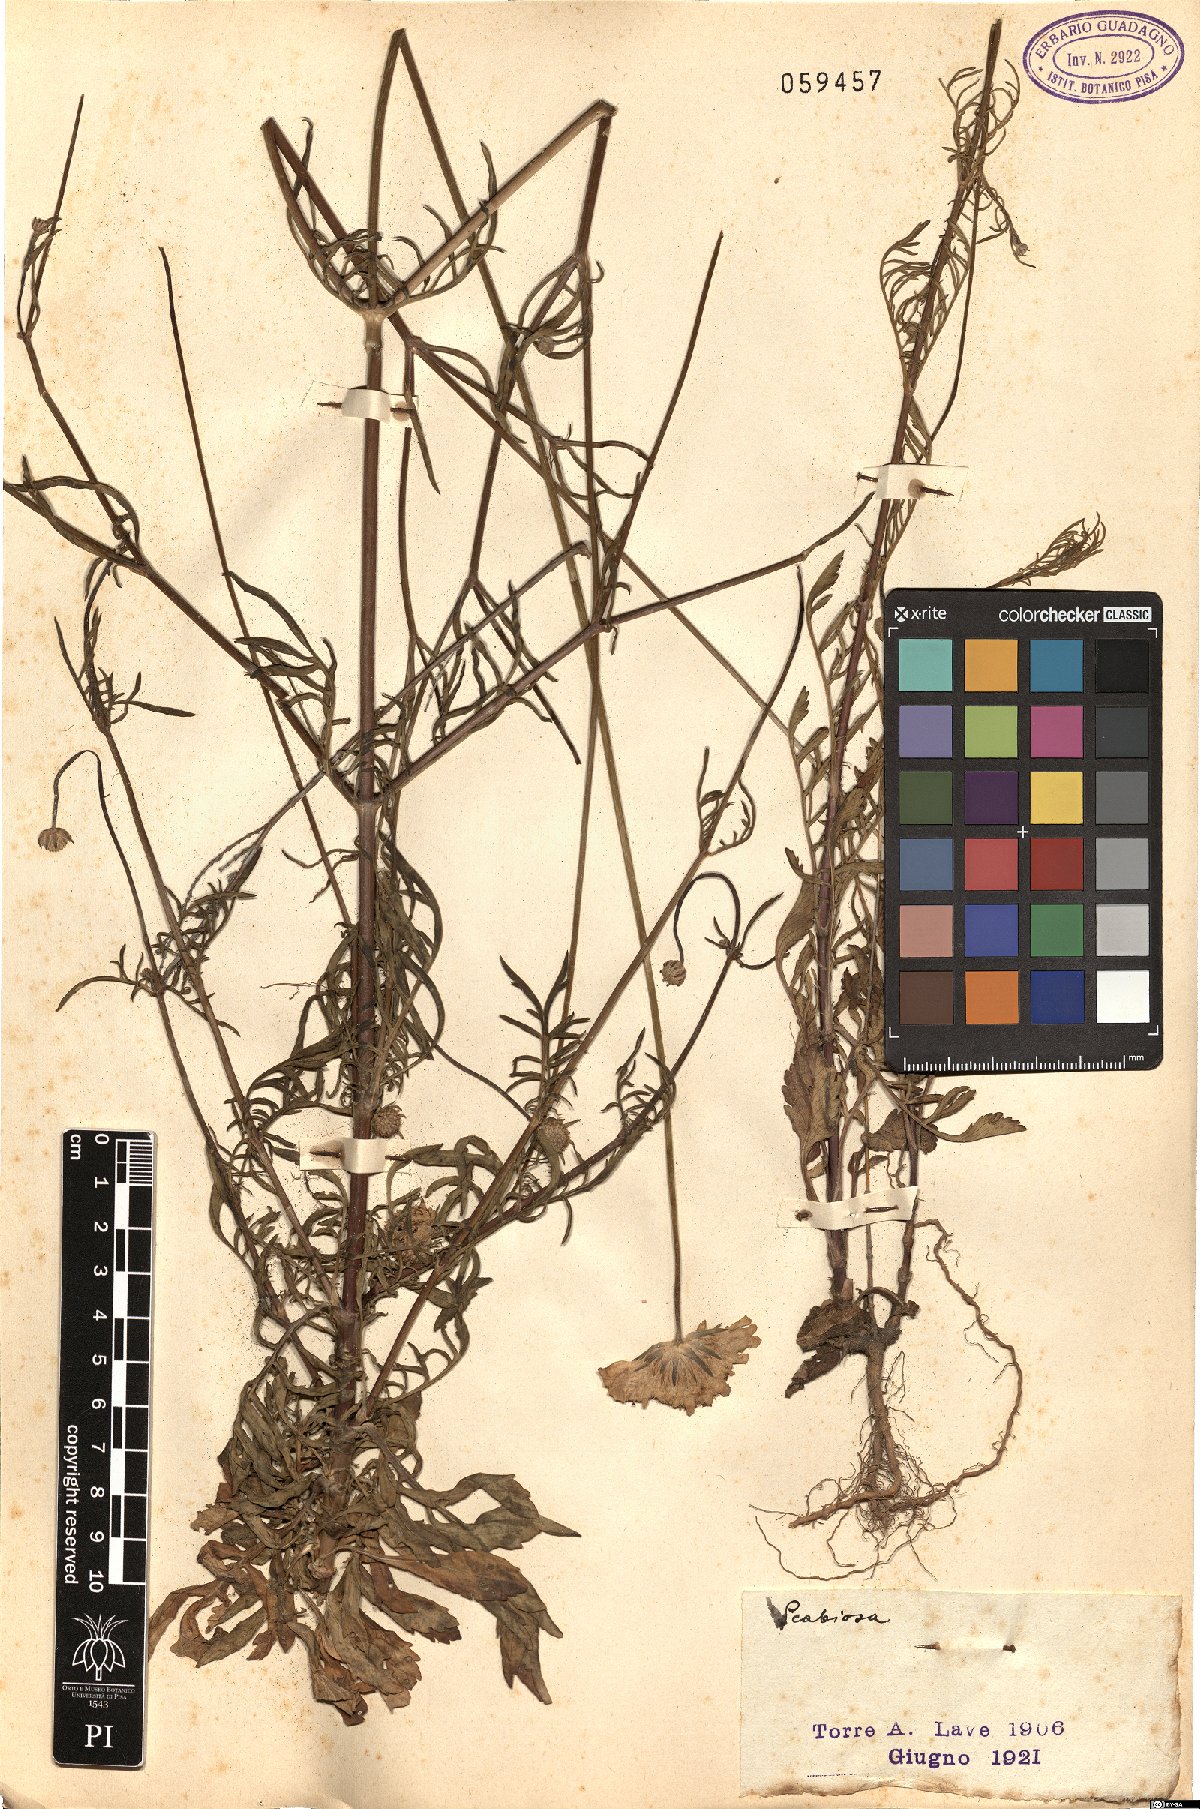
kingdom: Plantae
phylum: Tracheophyta
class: Magnoliopsida
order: Dipsacales
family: Caprifoliaceae
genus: Scabiosa
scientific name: Scabiosa
